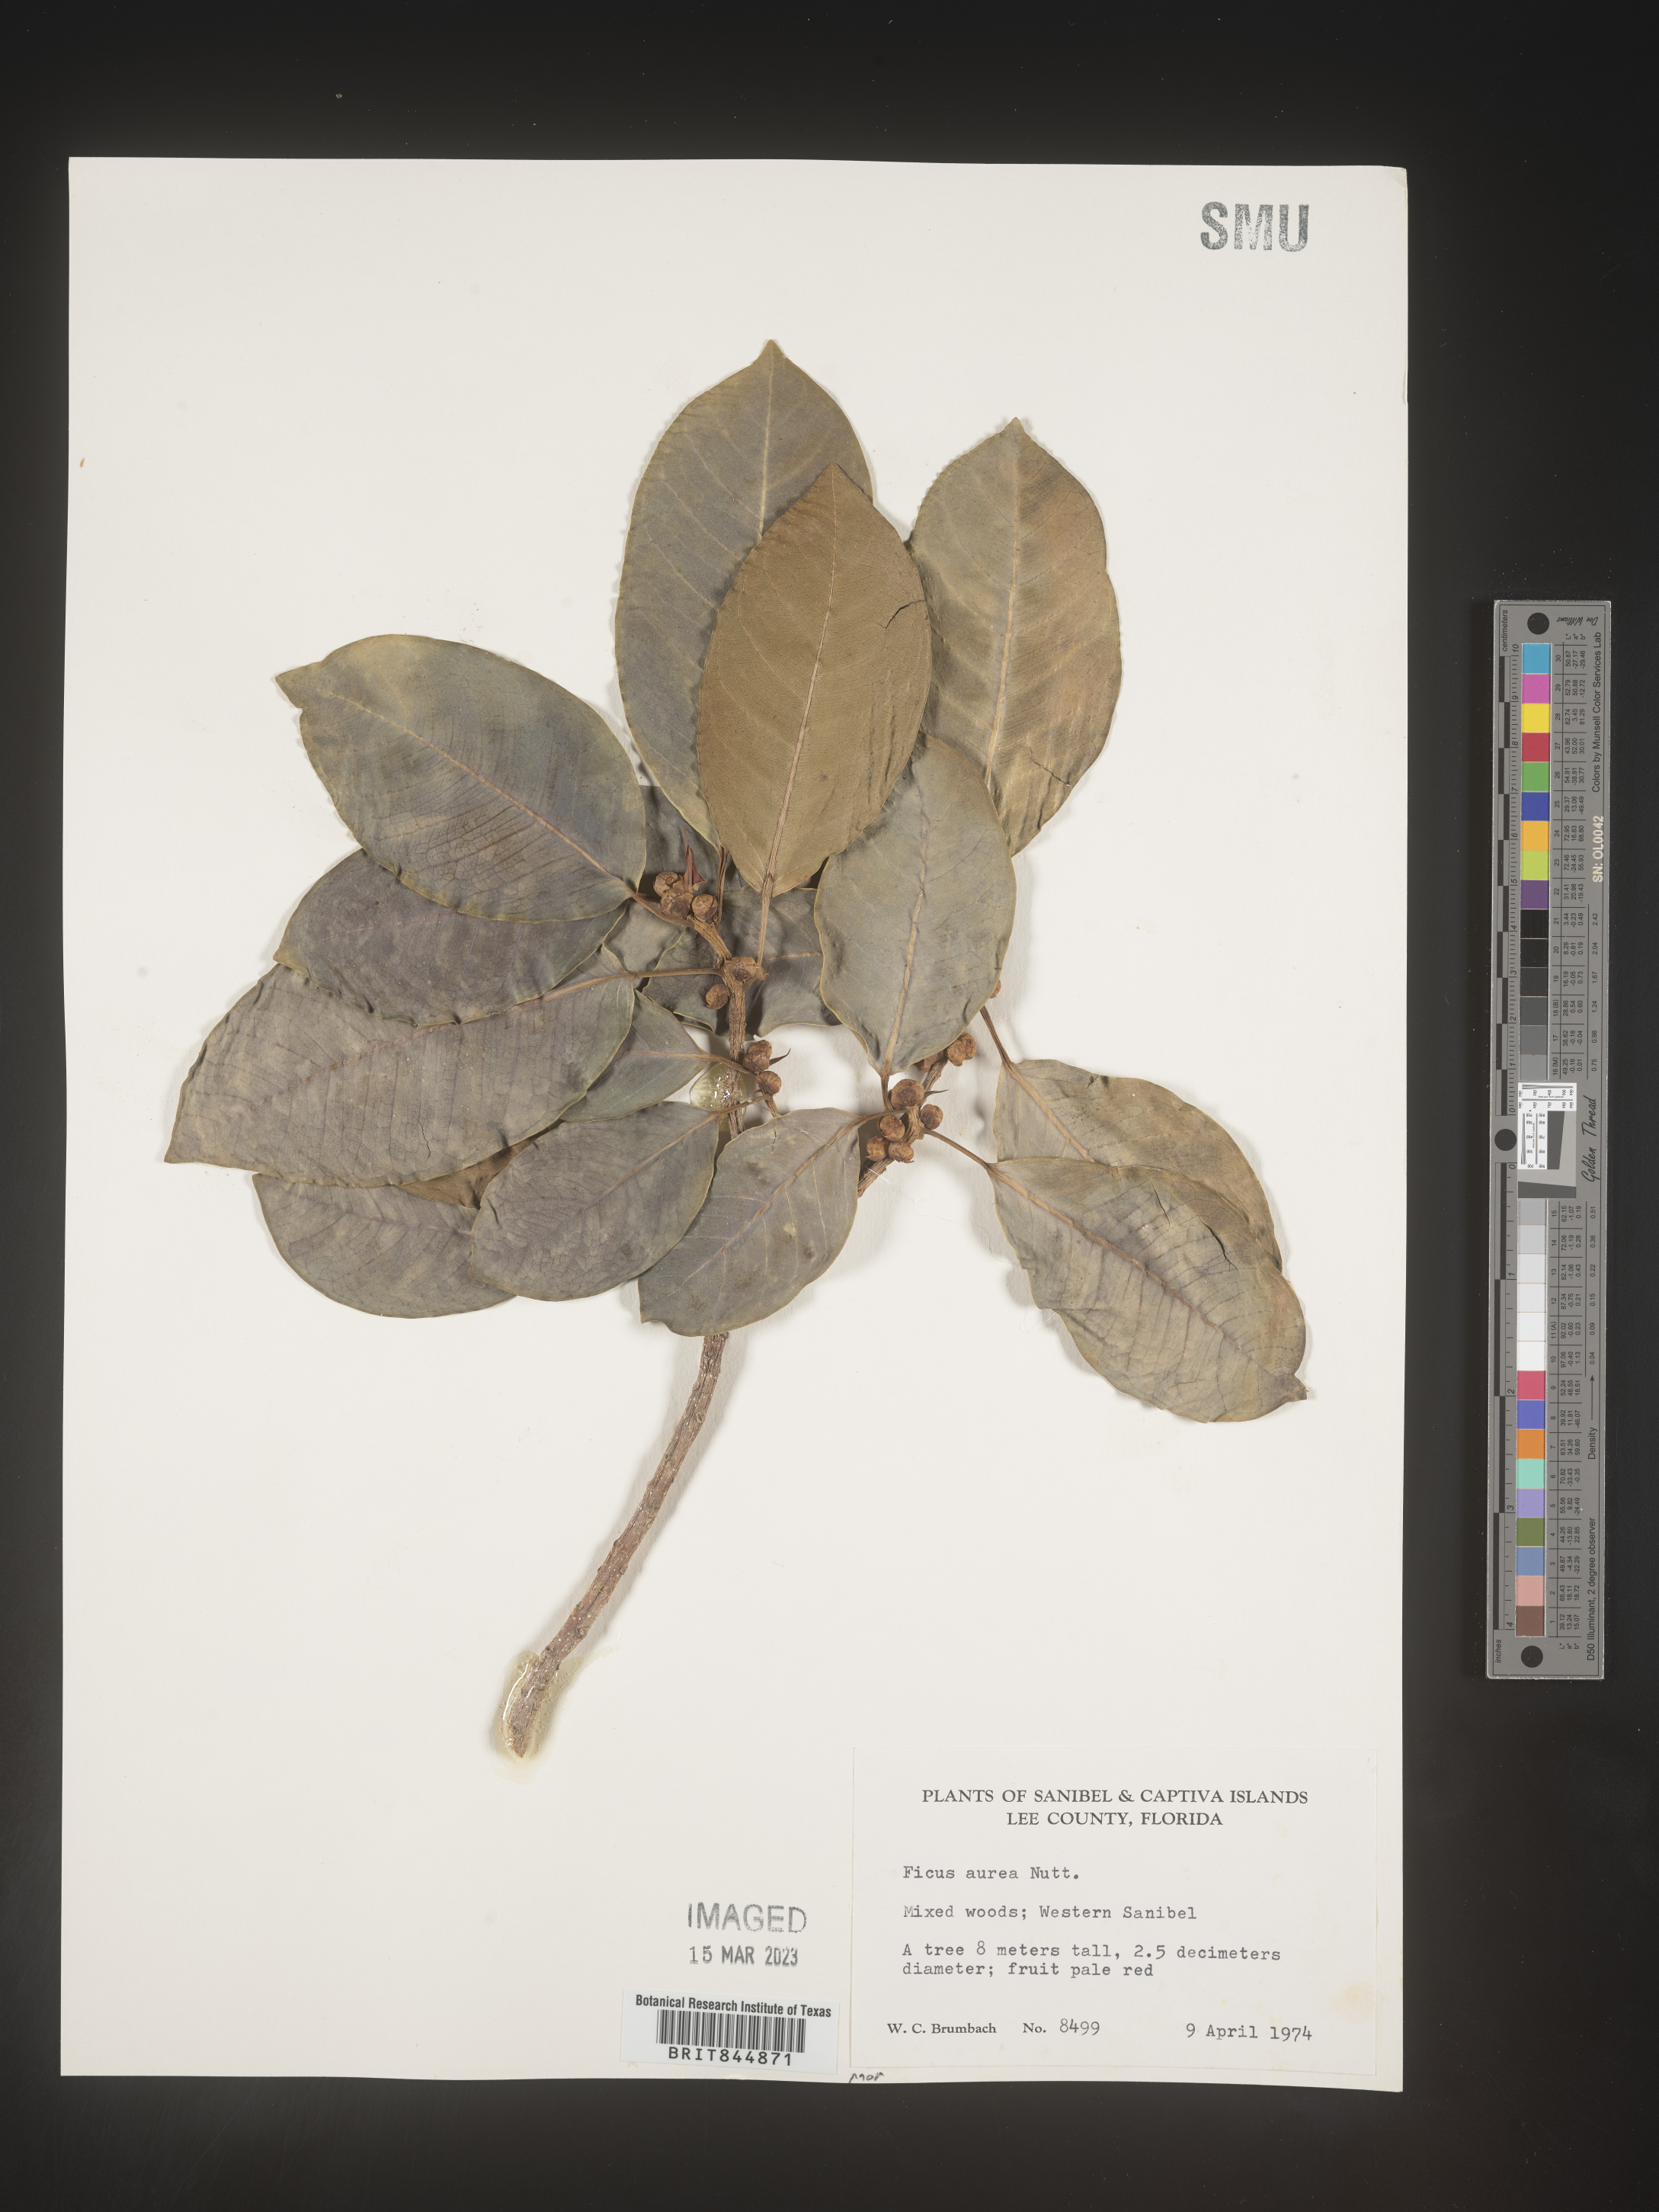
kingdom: Plantae
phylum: Tracheophyta
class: Magnoliopsida
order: Rosales
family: Moraceae
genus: Ficus
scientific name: Ficus
